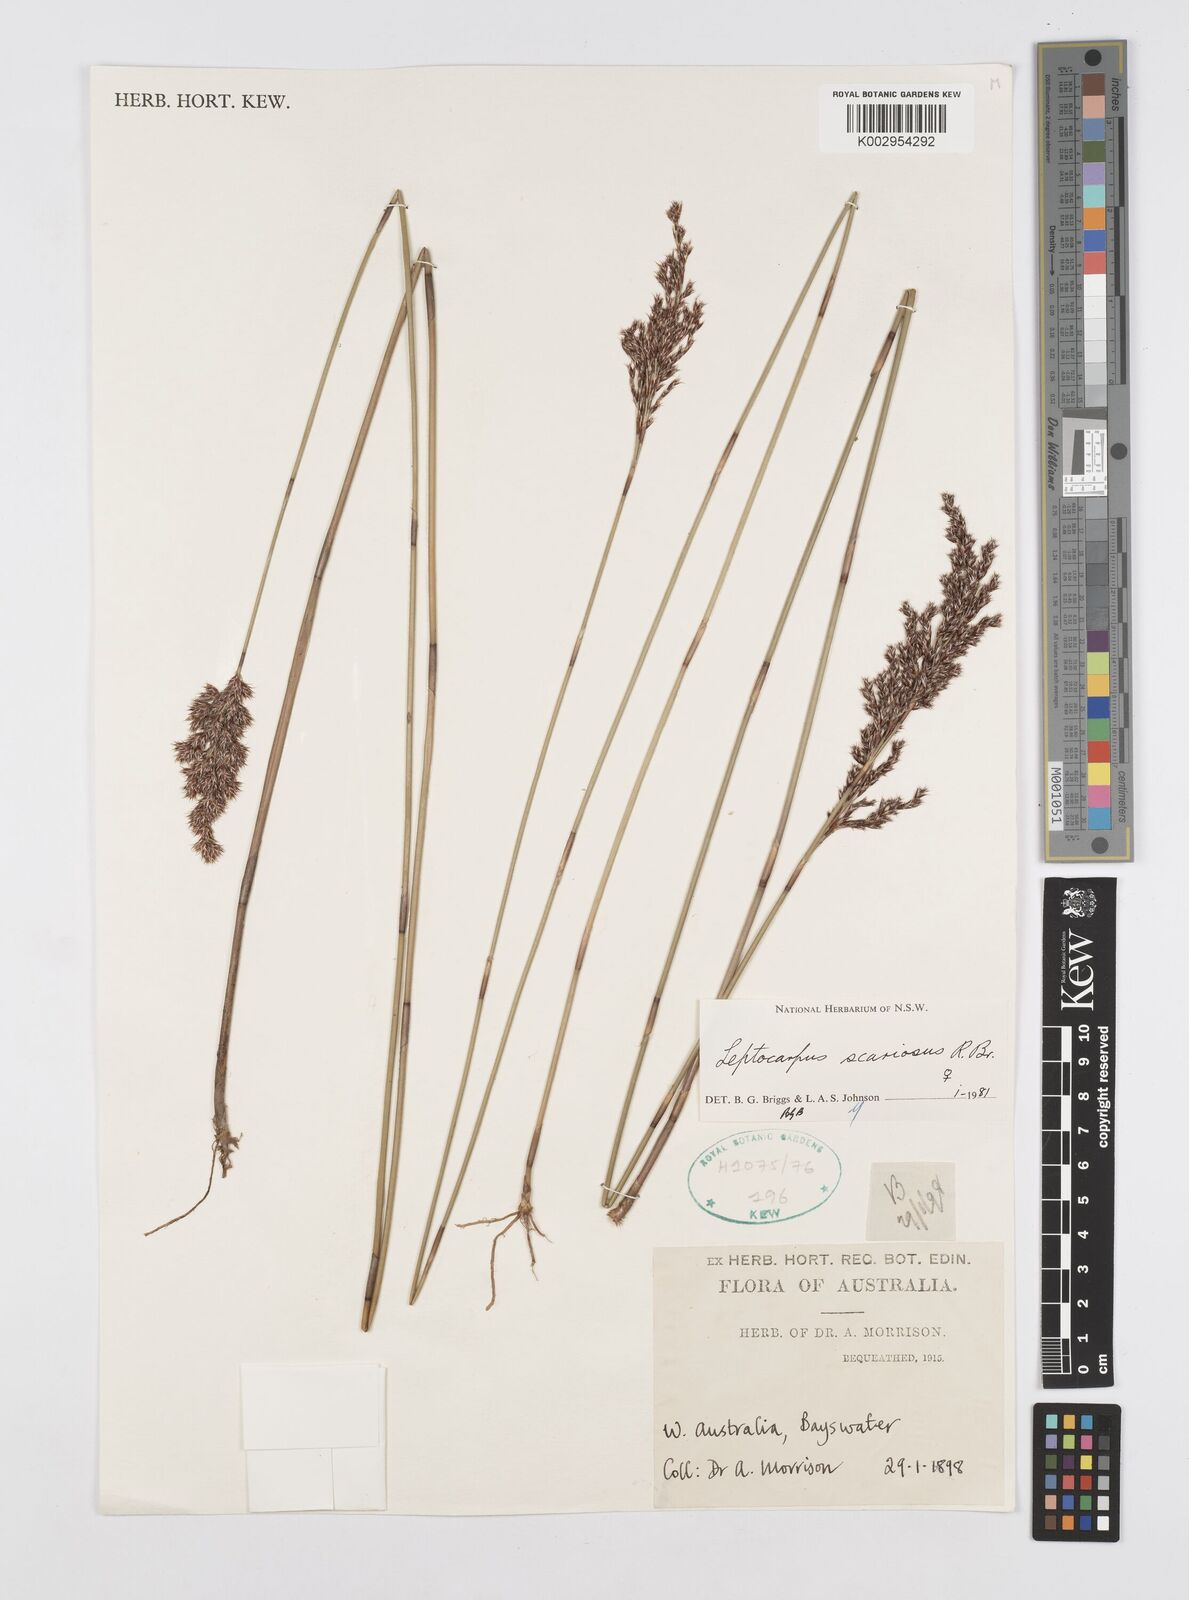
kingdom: Plantae
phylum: Tracheophyta
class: Liliopsida
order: Poales
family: Restionaceae
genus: Leptocarpus
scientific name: Leptocarpus scariosus
